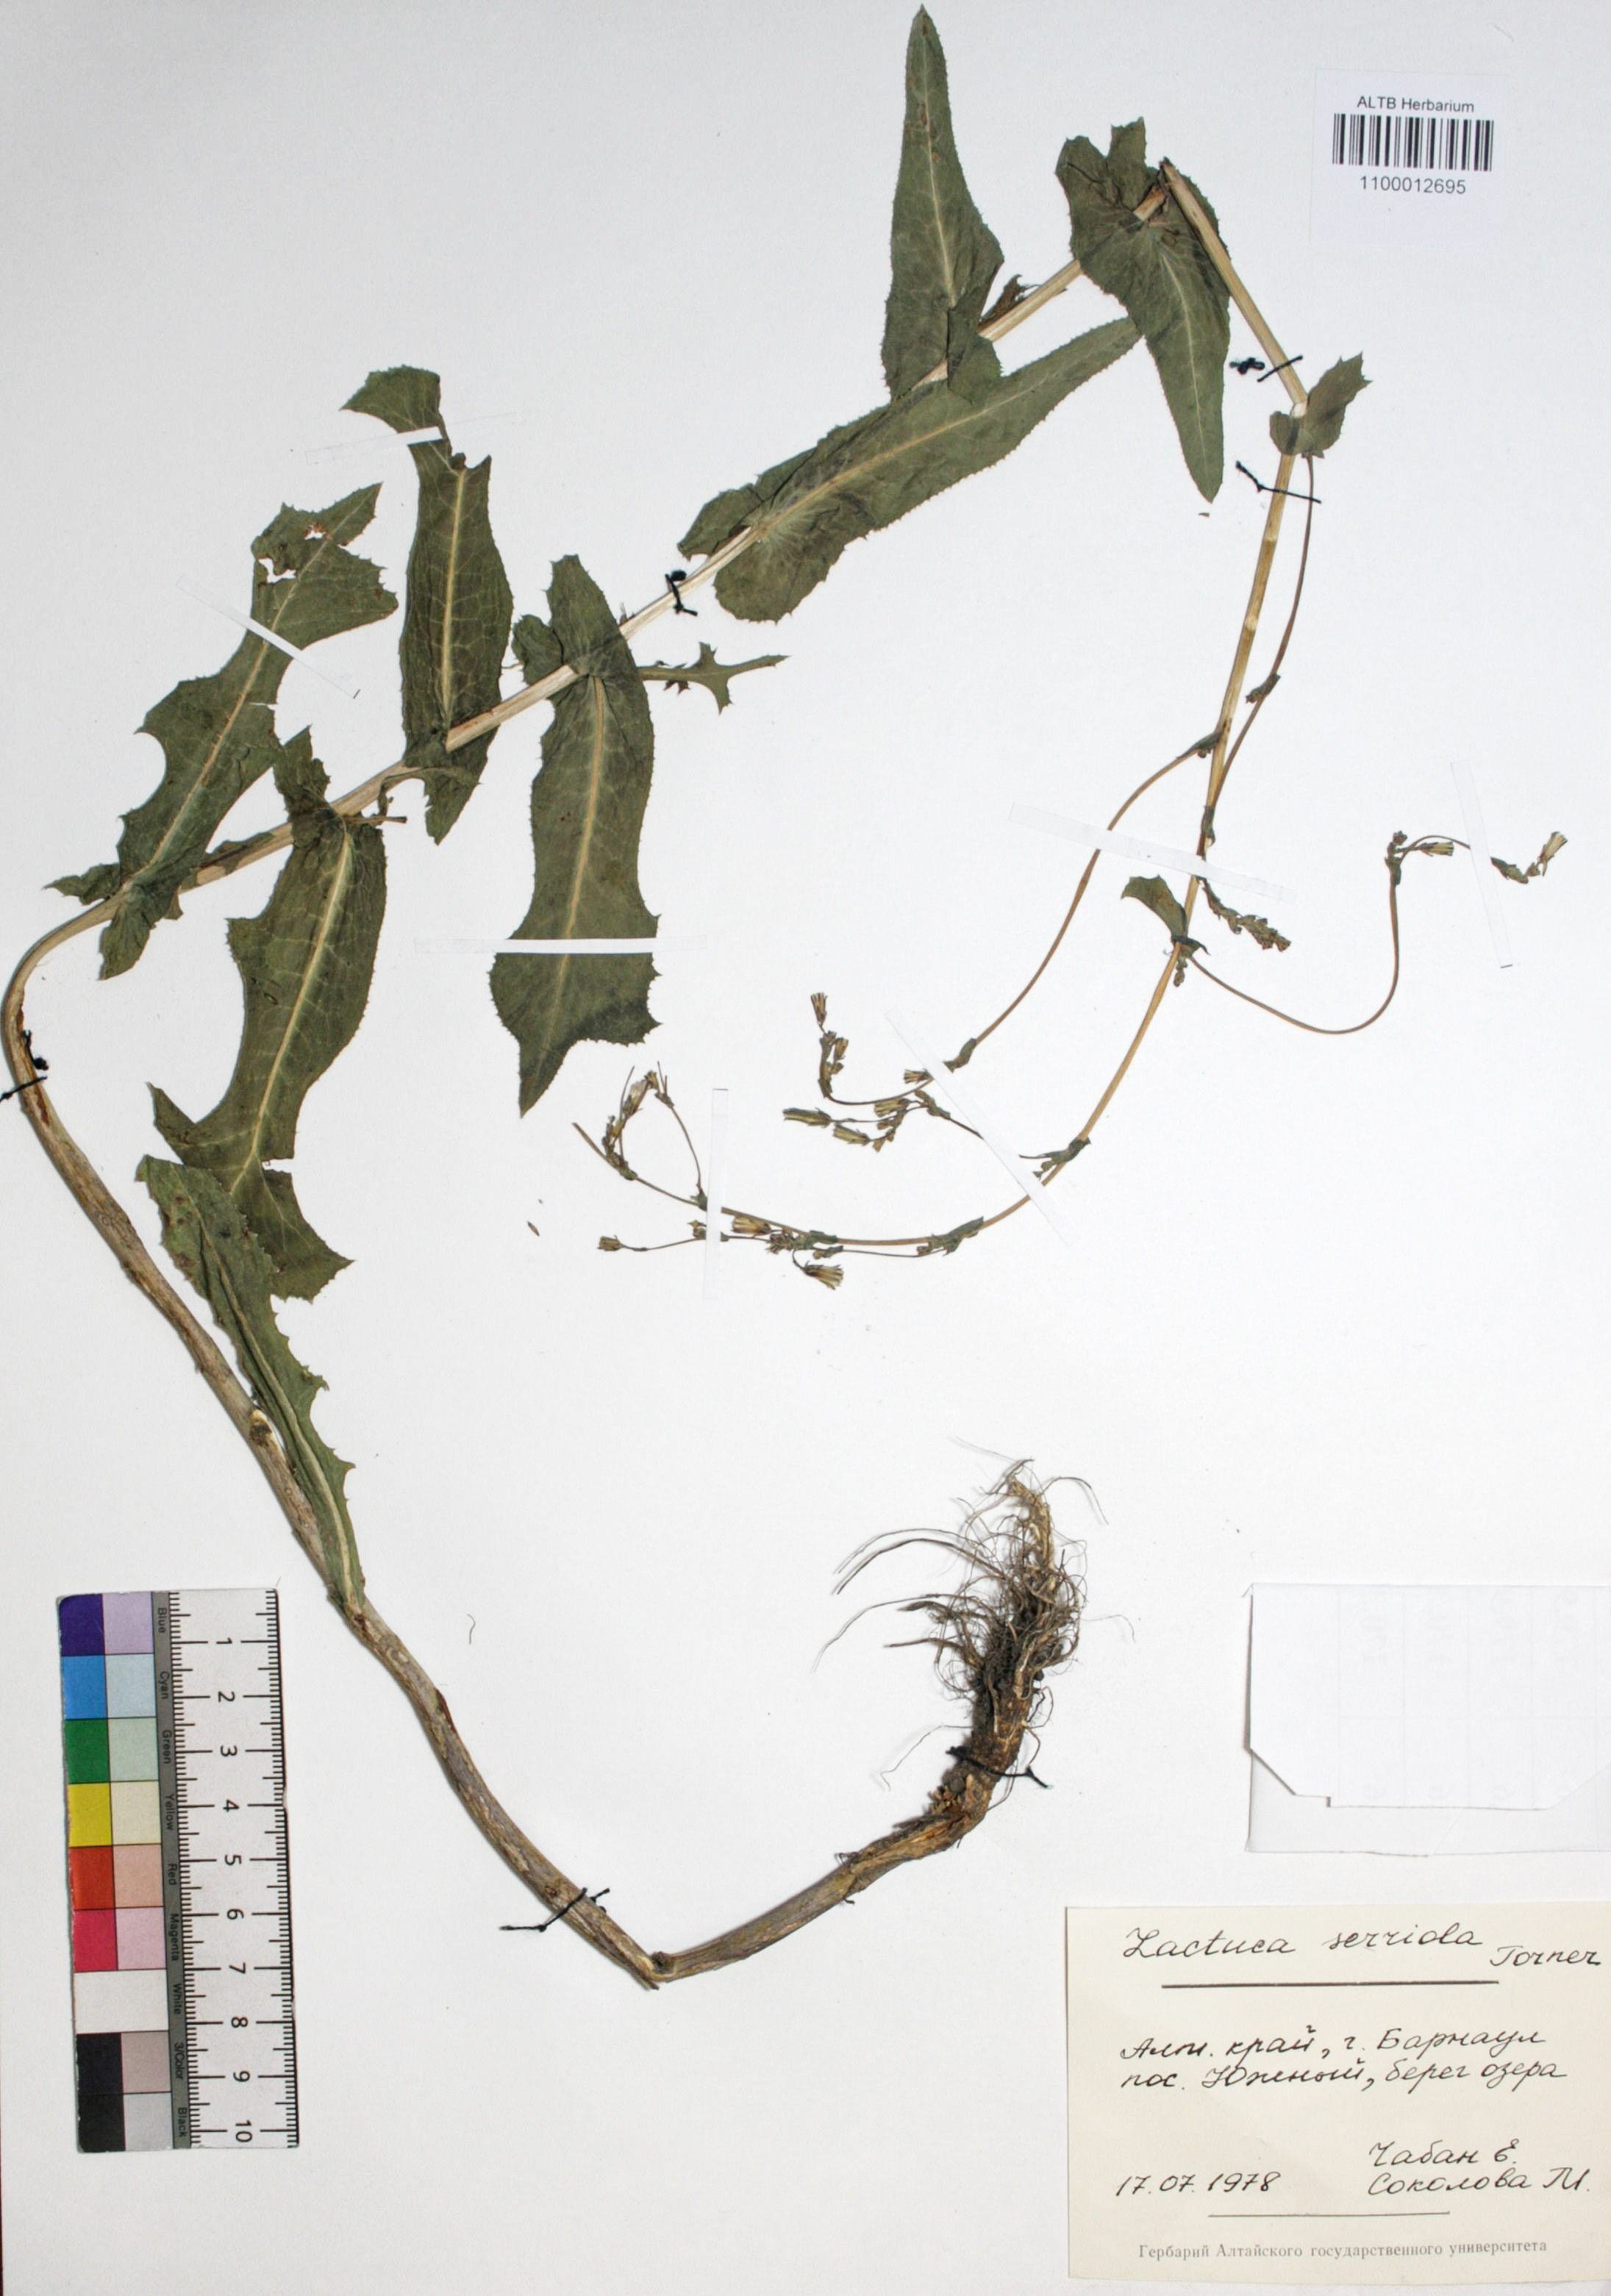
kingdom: Plantae
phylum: Tracheophyta
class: Magnoliopsida
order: Asterales
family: Asteraceae
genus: Lactuca
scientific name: Lactuca serriola
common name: Prickly lettuce
